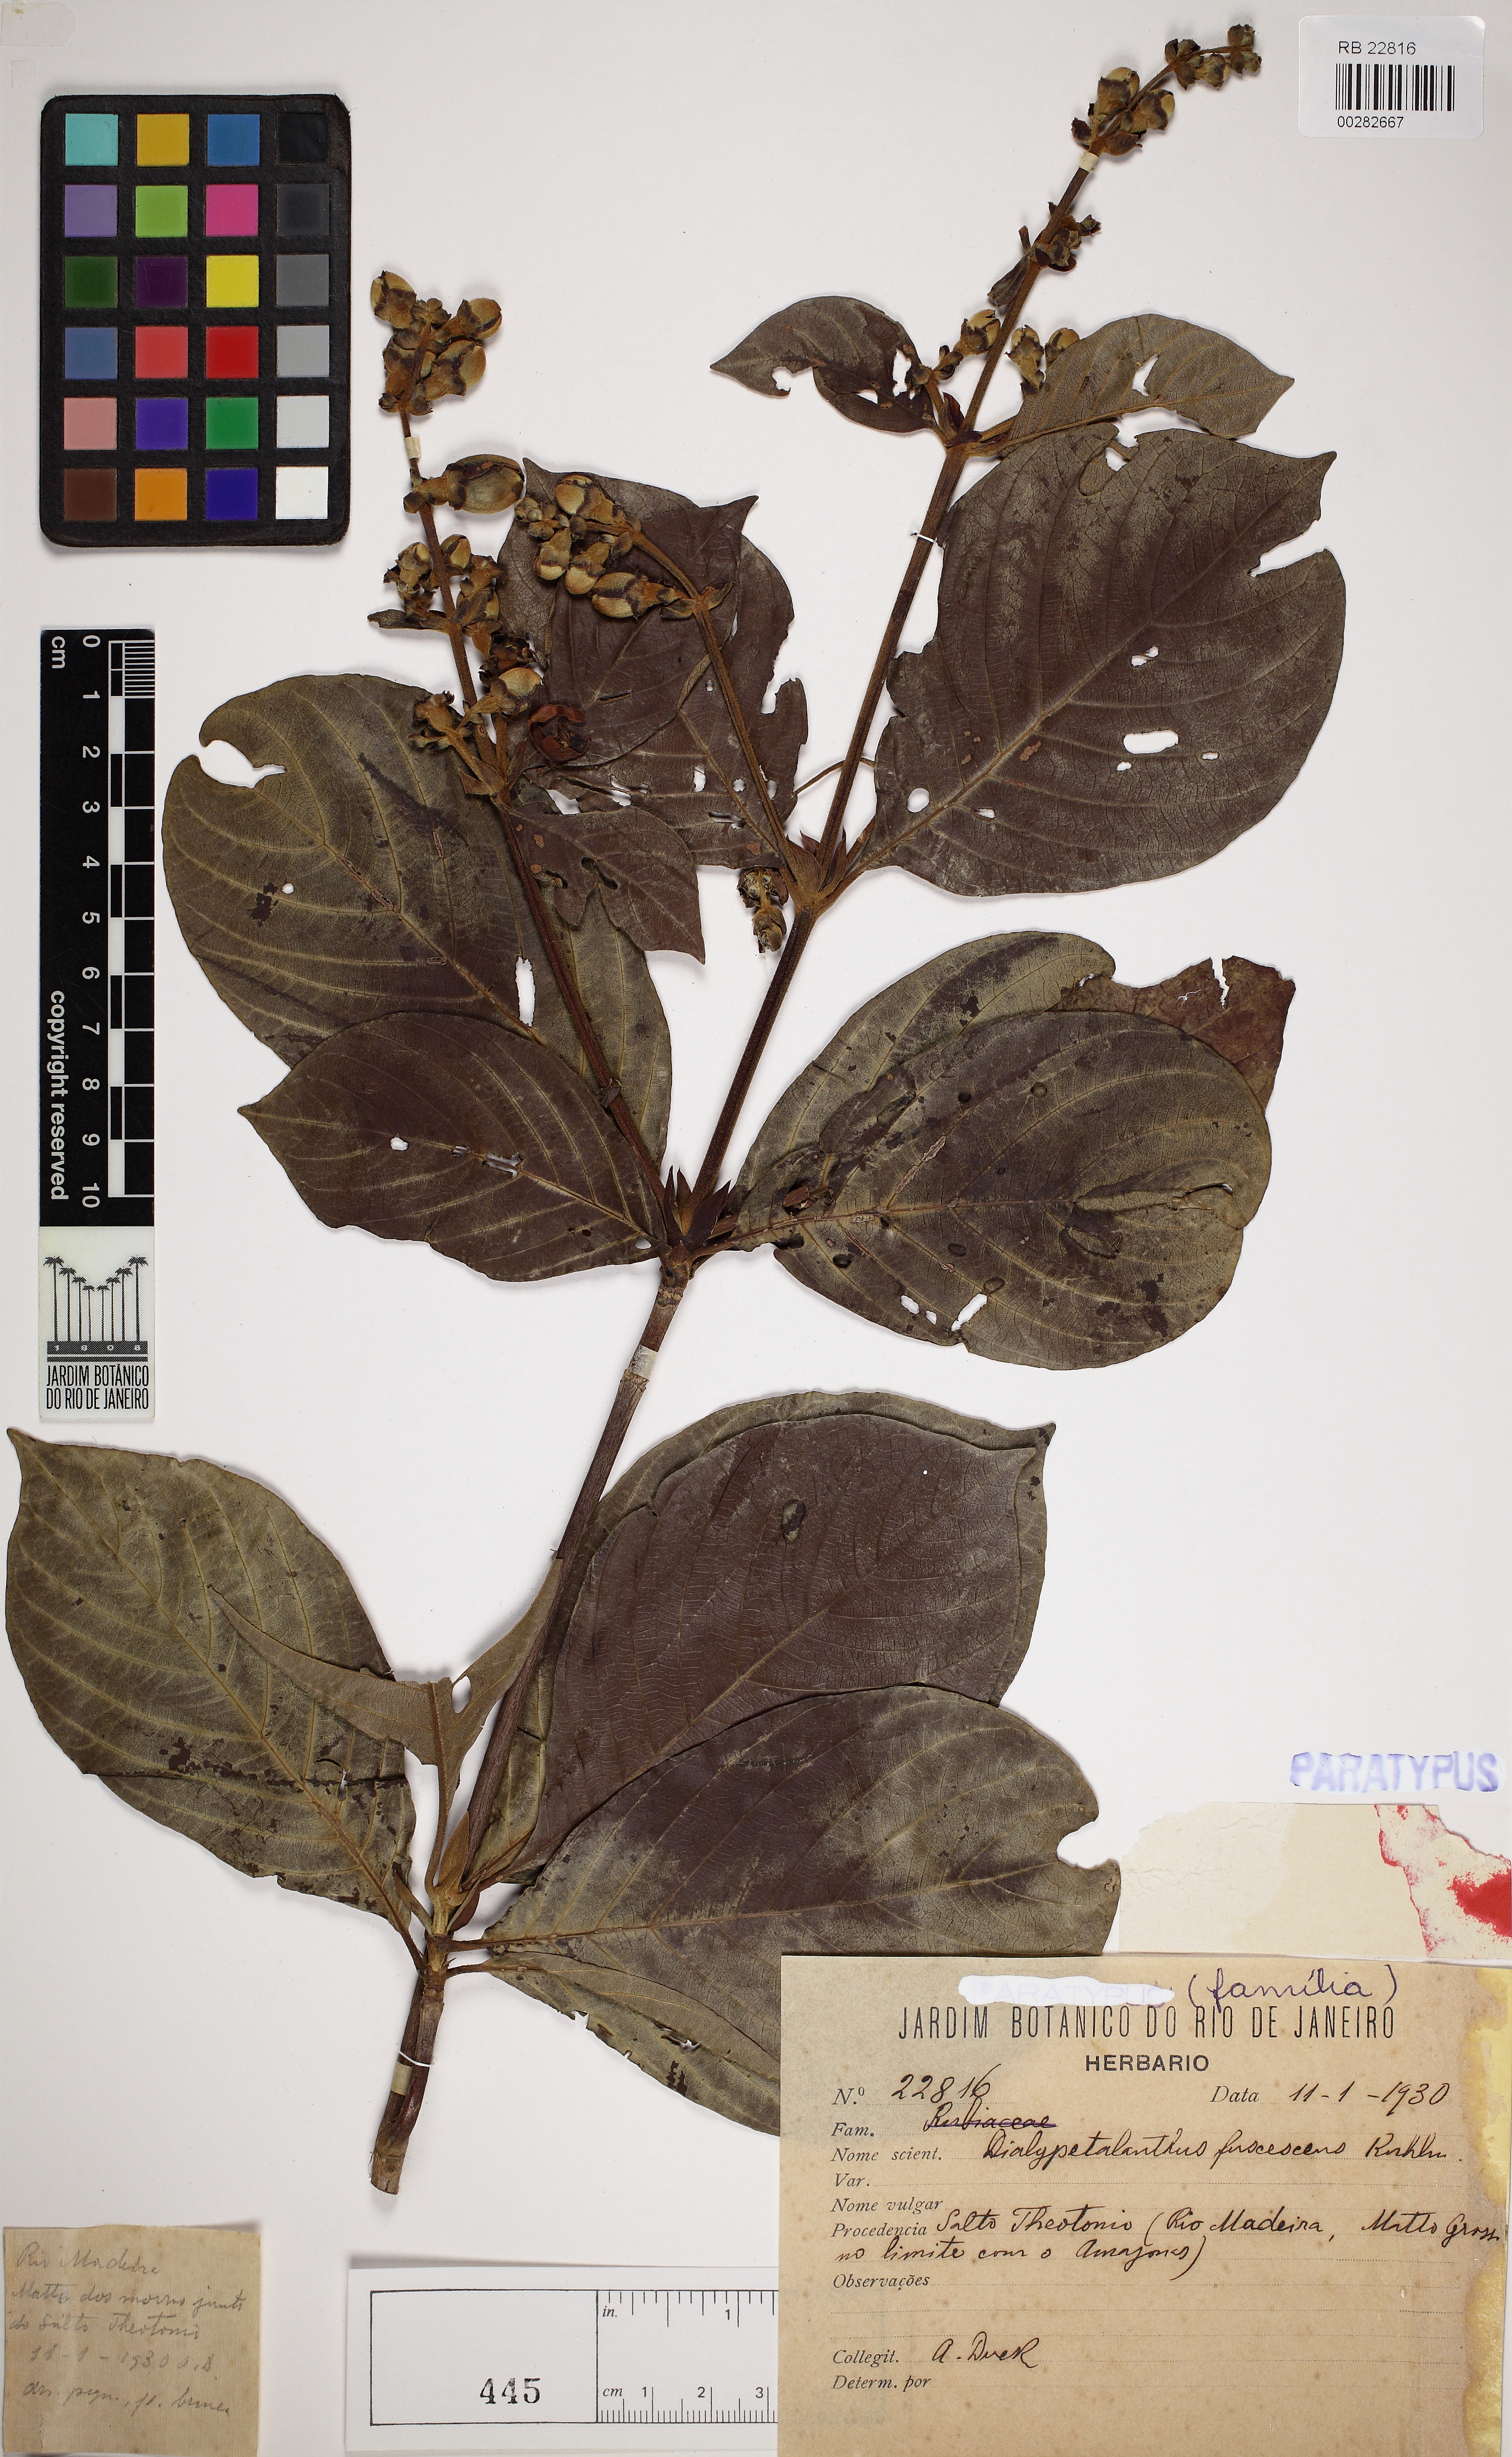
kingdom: Plantae
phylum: Tracheophyta
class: Magnoliopsida
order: Gentianales
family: Rubiaceae
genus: Dialypetalanthus
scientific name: Dialypetalanthus fuscescens
